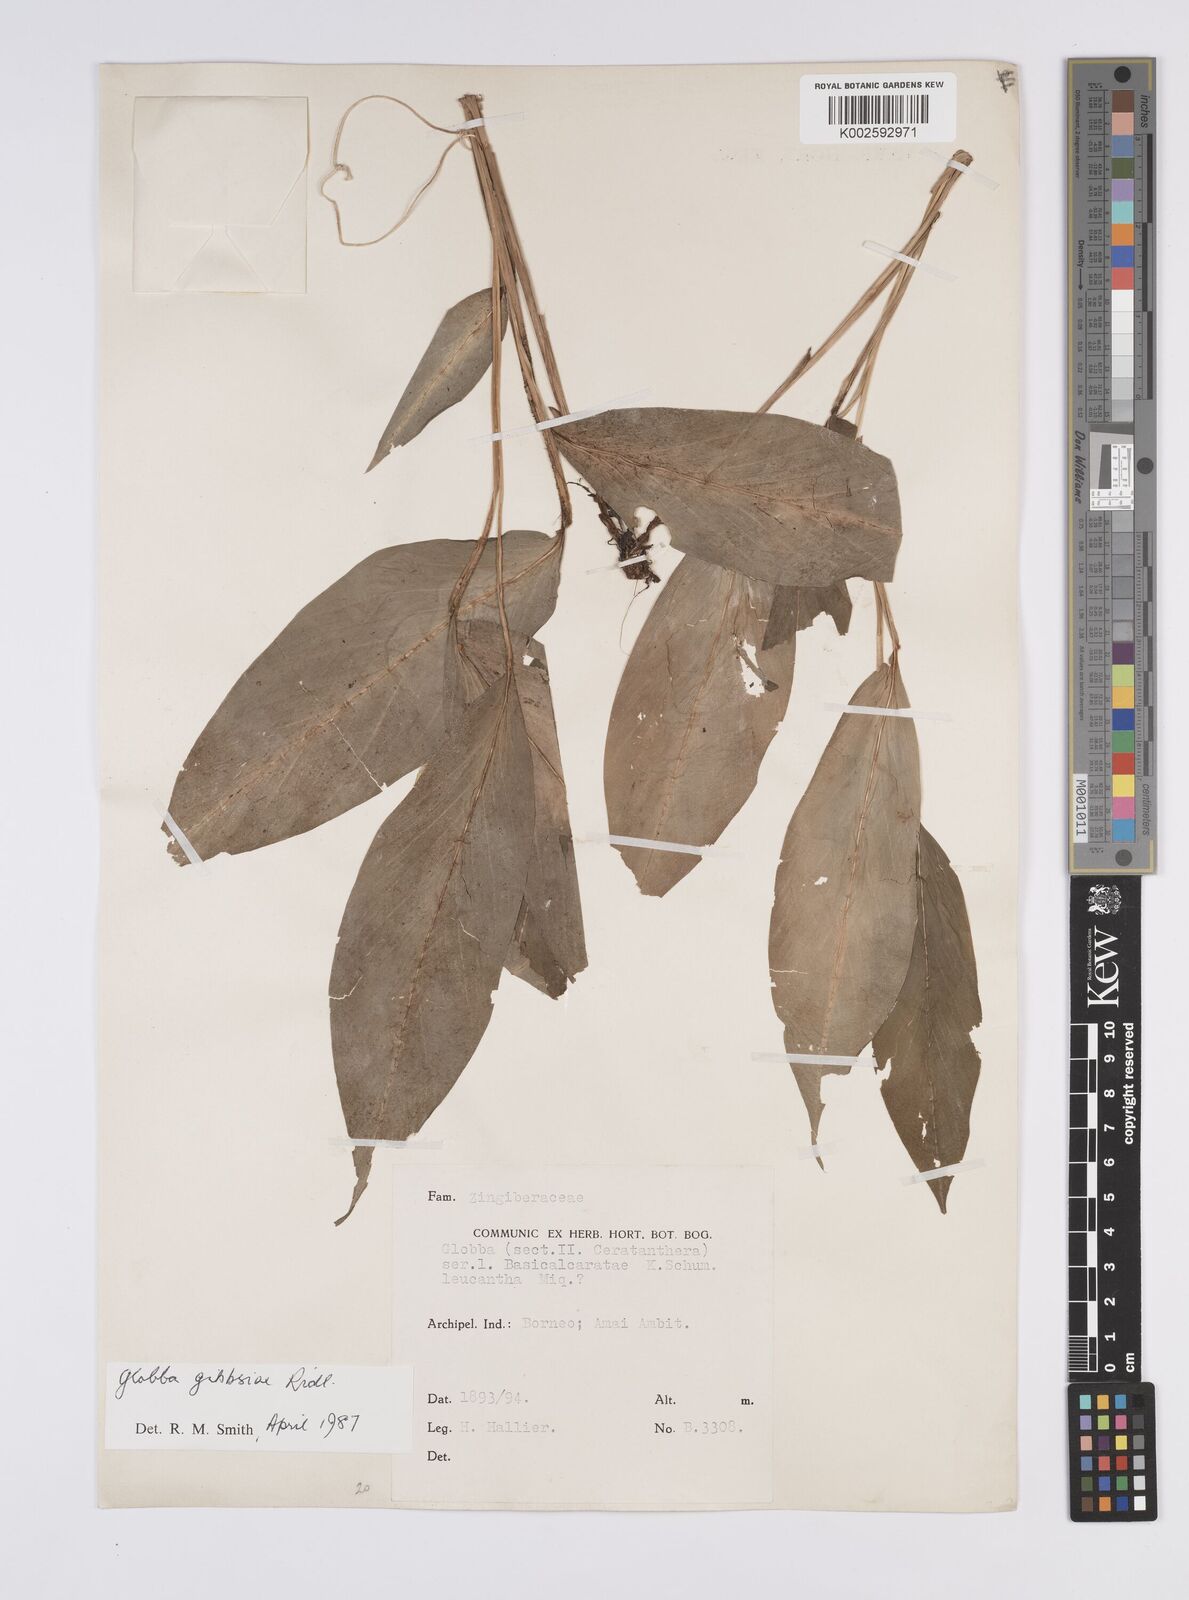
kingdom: Plantae
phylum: Tracheophyta
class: Liliopsida
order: Zingiberales
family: Zingiberaceae
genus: Globba
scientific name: Globba tricolor
